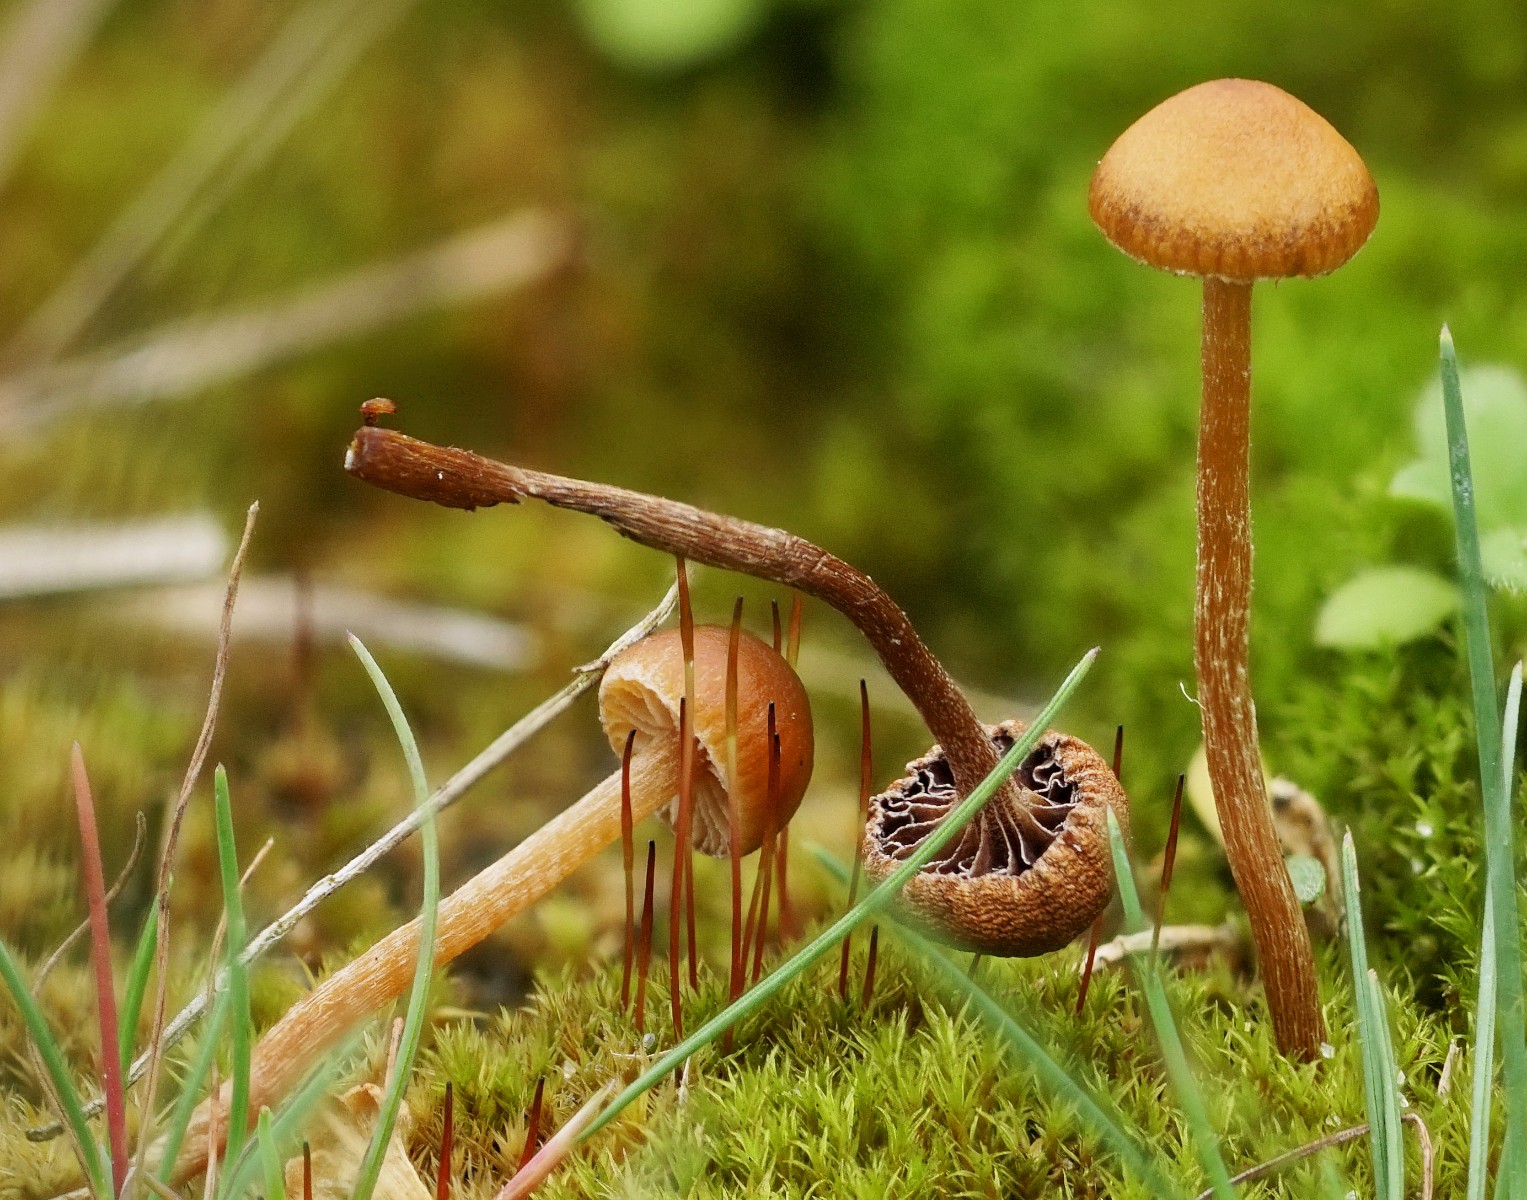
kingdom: Fungi
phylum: Basidiomycota
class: Agaricomycetes
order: Agaricales
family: Strophariaceae
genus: Deconica
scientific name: Deconica
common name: stråhat
